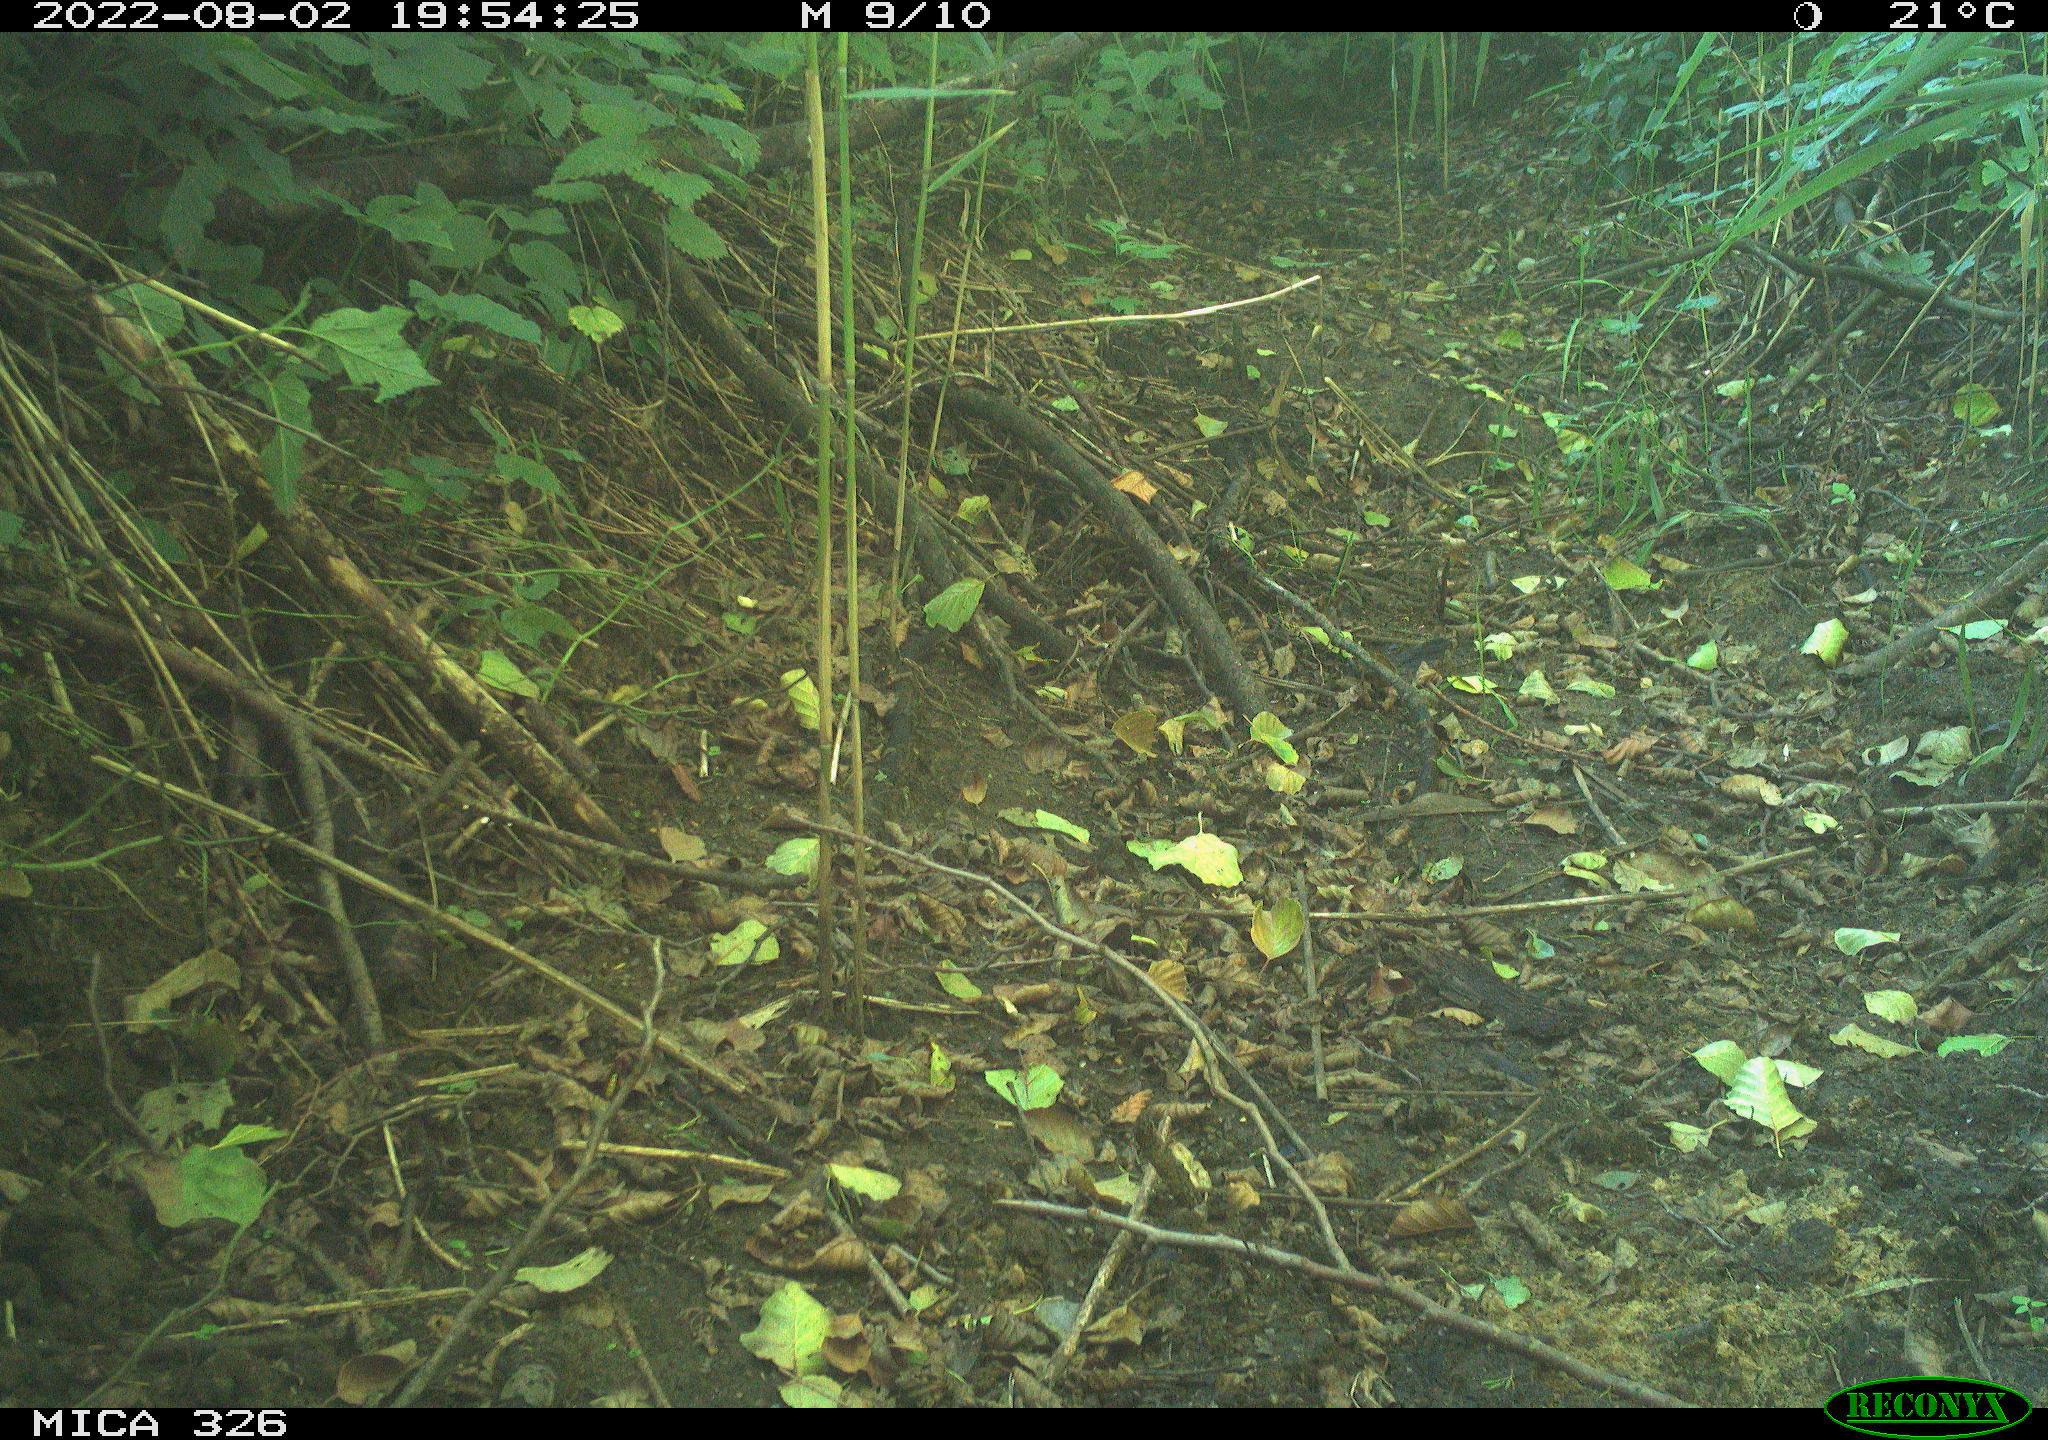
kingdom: Animalia
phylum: Chordata
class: Mammalia
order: Lagomorpha
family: Leporidae
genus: Lepus
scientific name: Lepus europaeus
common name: European hare
